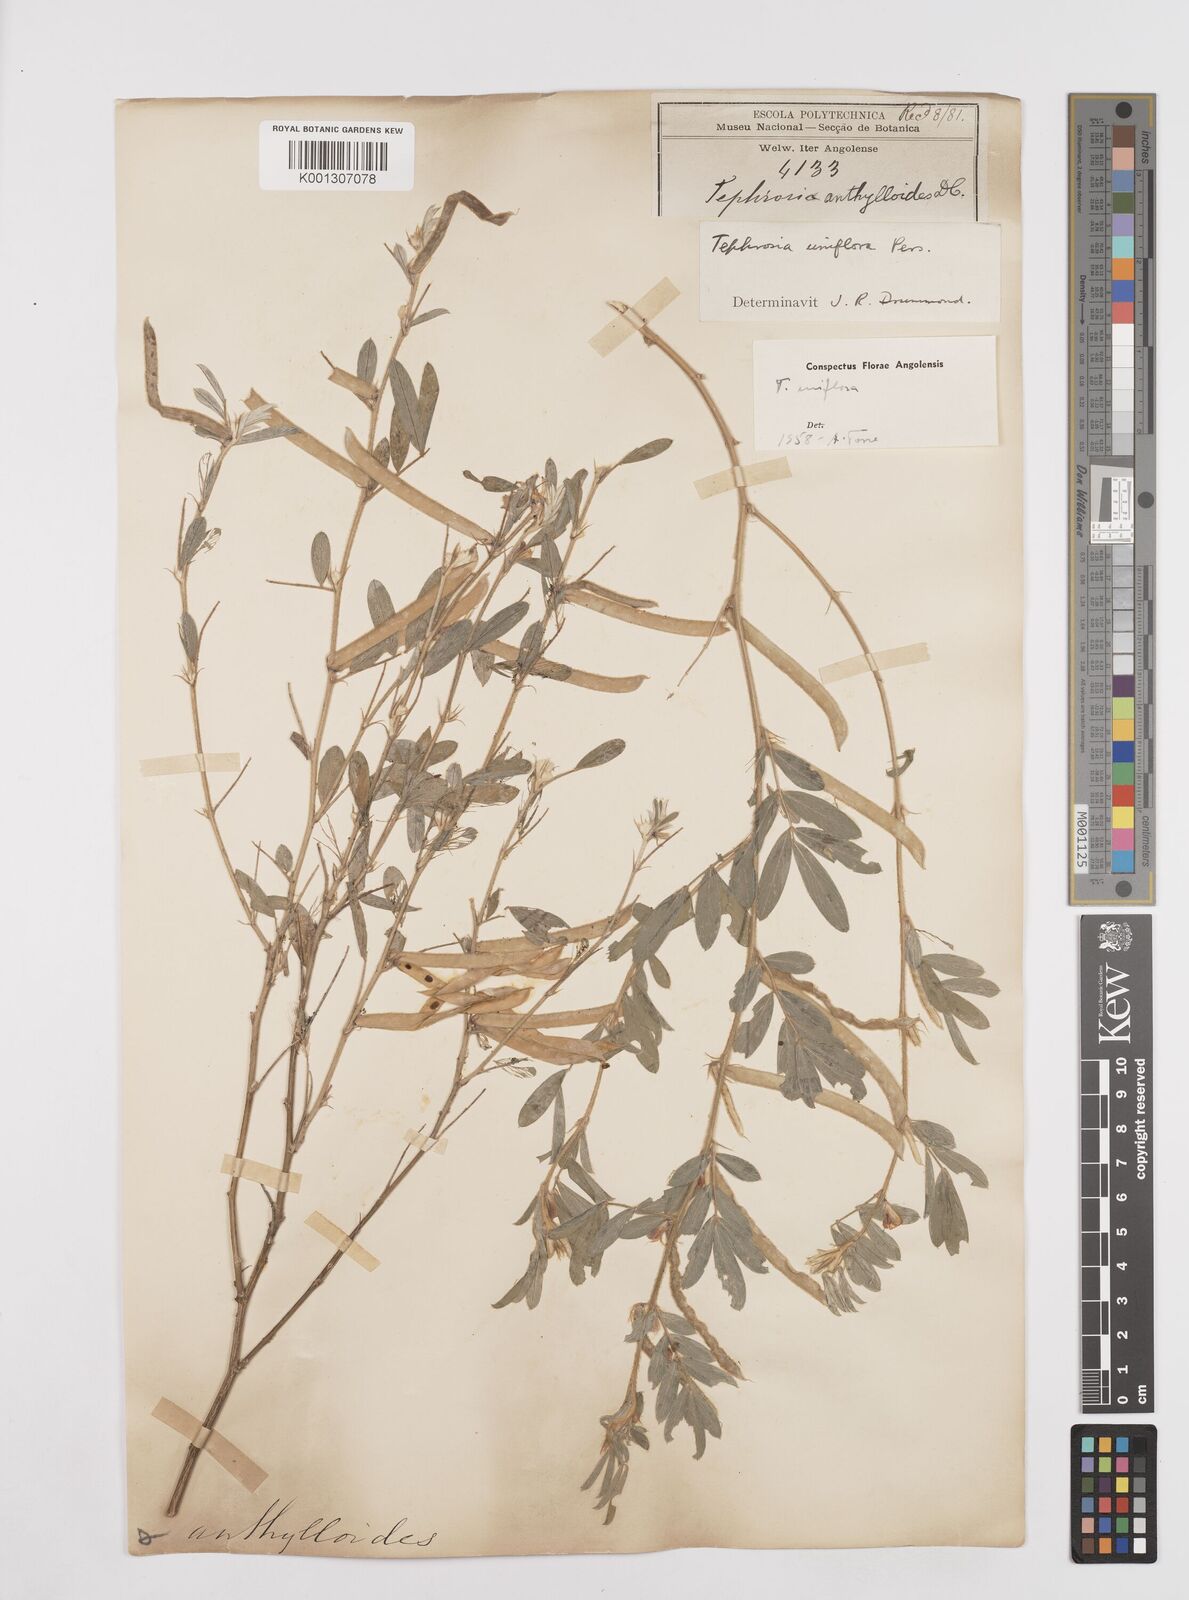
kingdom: Plantae
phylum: Tracheophyta
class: Magnoliopsida
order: Fabales
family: Fabaceae
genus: Tephrosia
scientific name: Tephrosia uniflora
